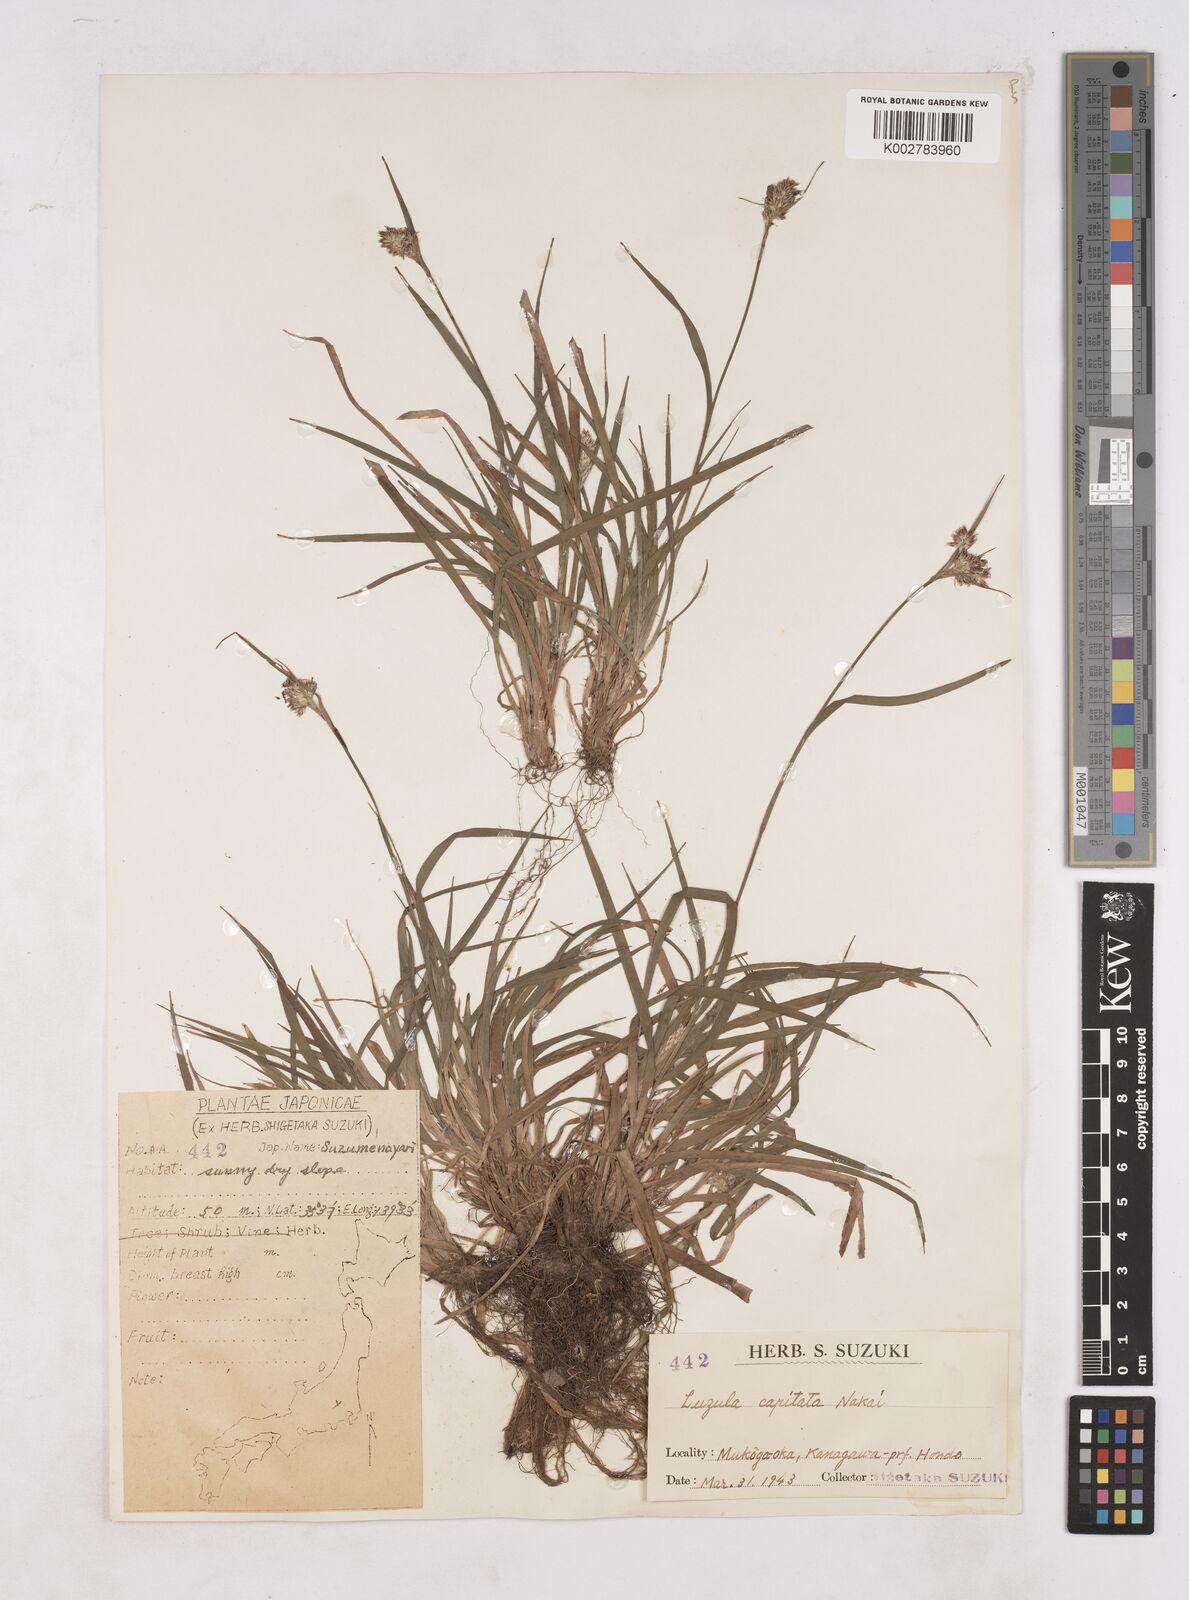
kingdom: Plantae
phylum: Tracheophyta
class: Liliopsida
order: Poales
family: Juncaceae
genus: Luzula
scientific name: Luzula capitata
